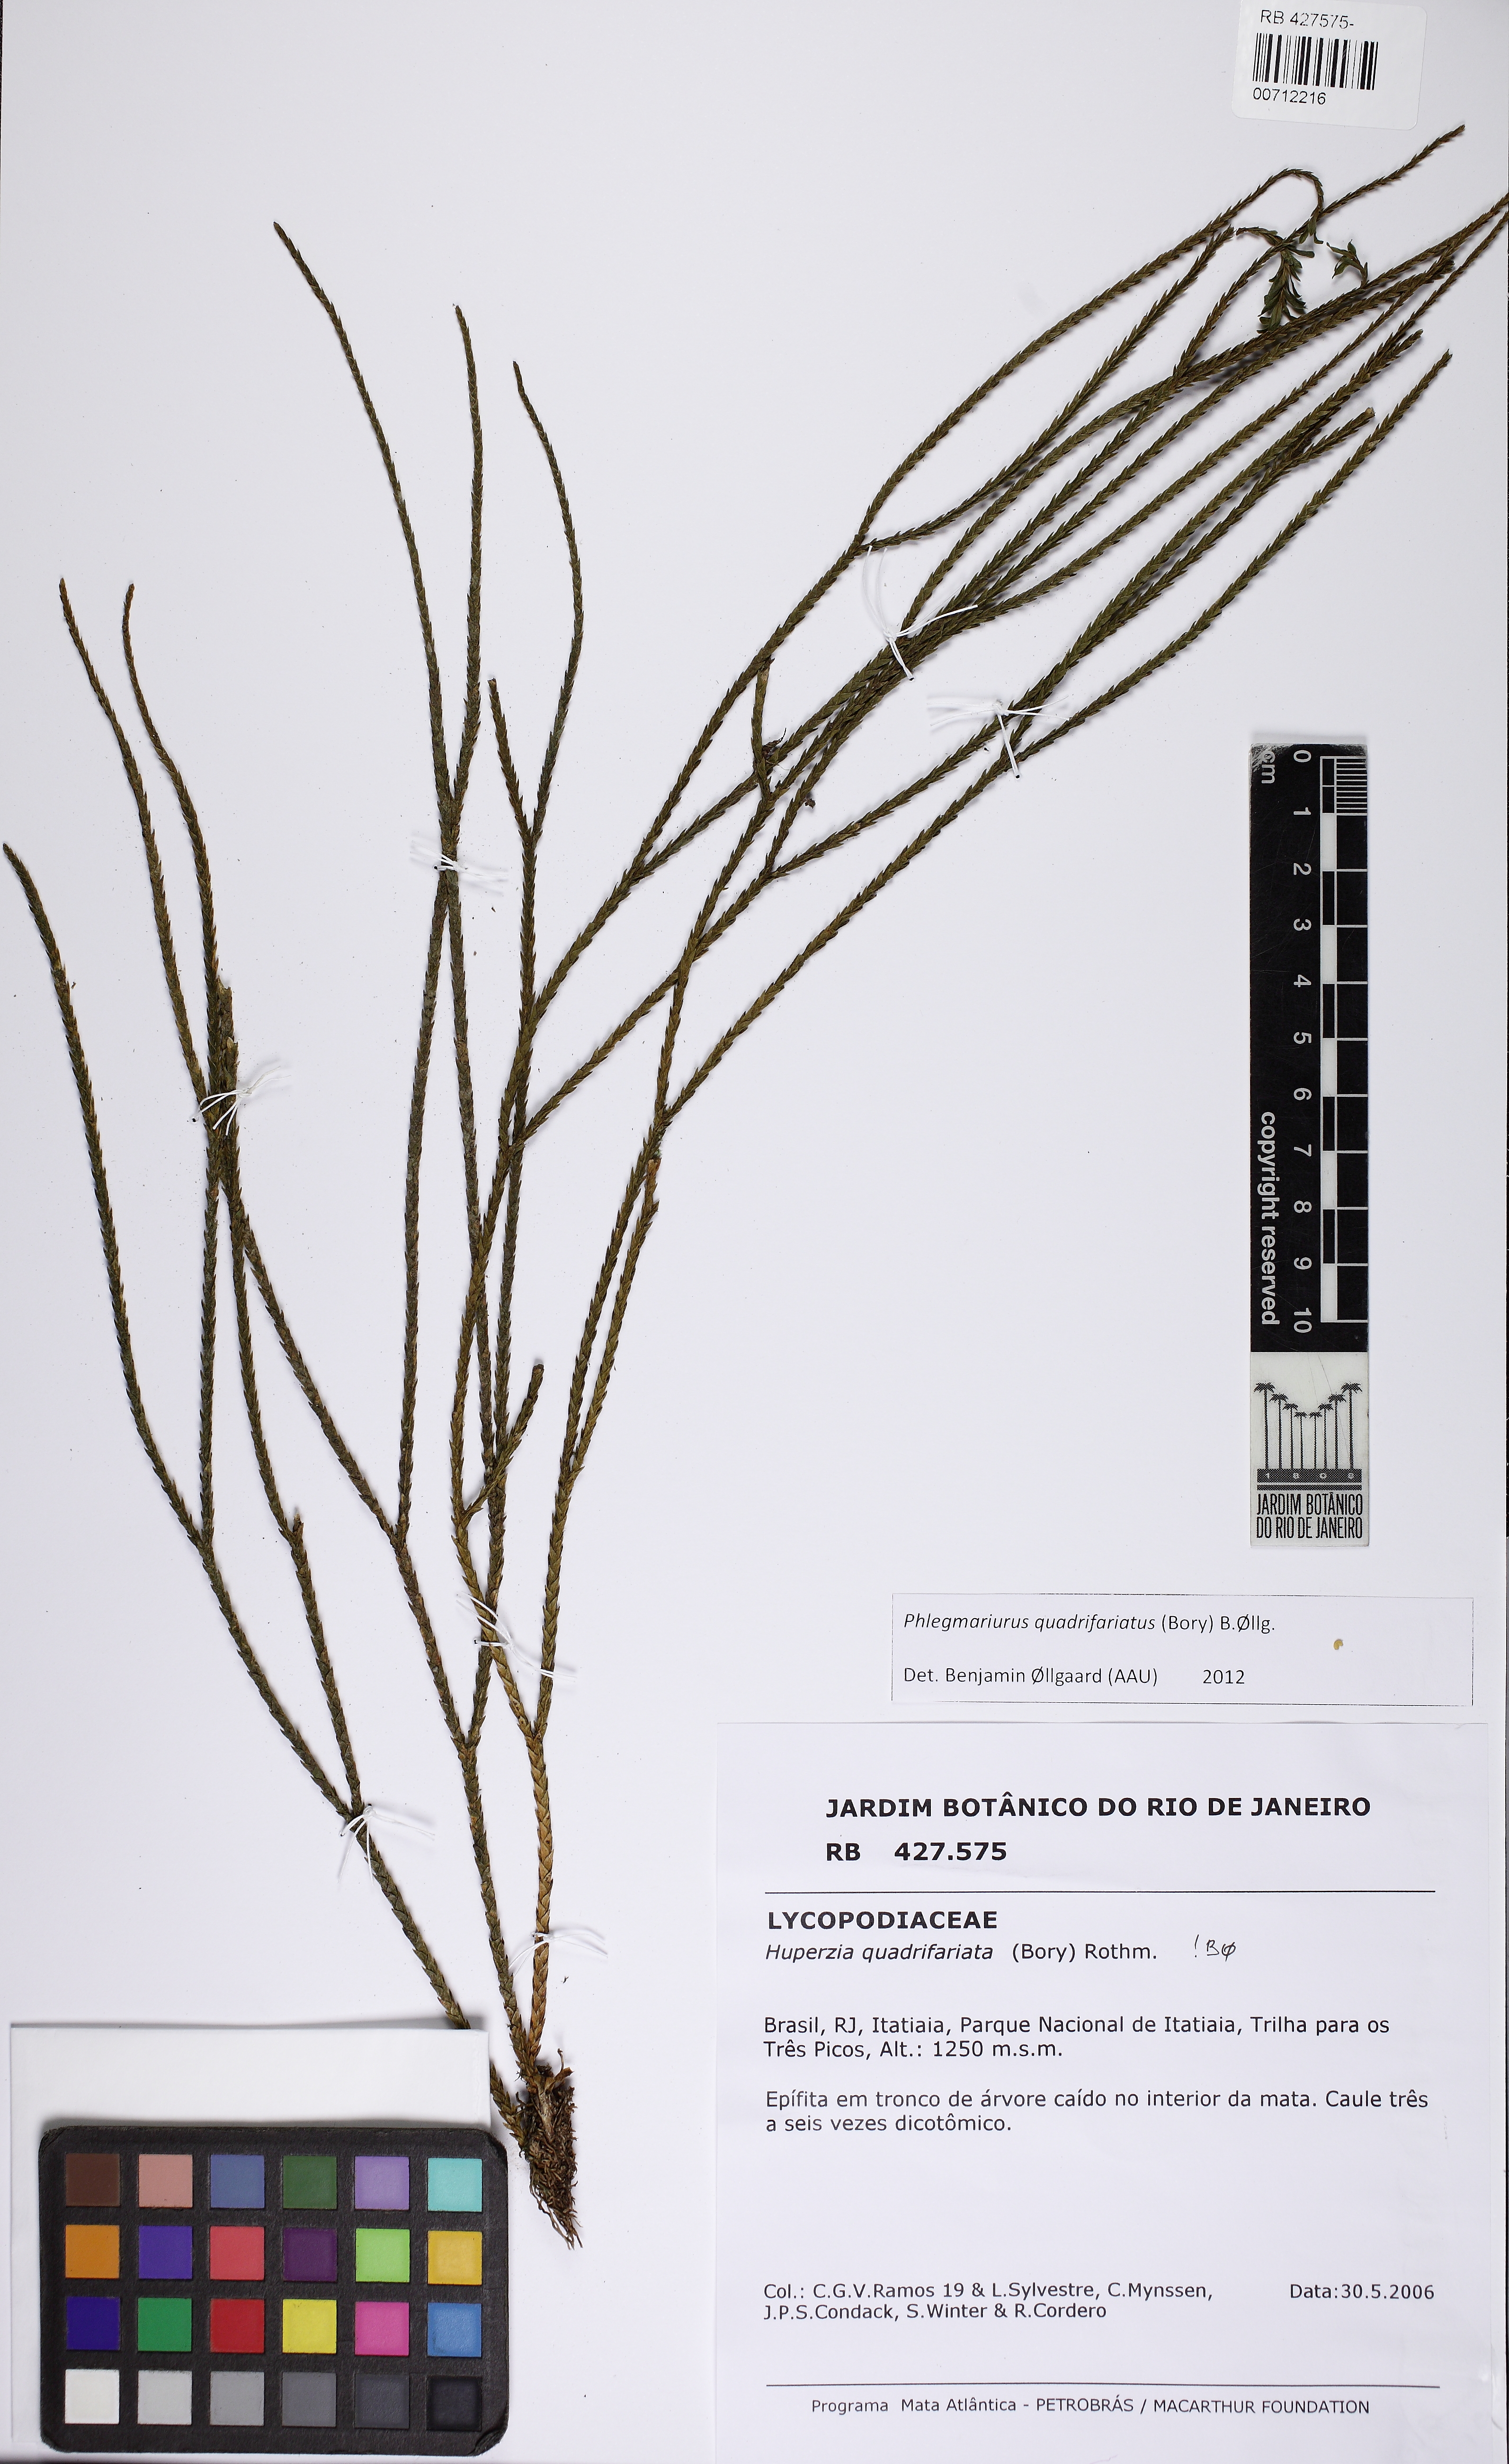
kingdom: Plantae
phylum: Tracheophyta
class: Lycopodiopsida
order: Lycopodiales
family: Lycopodiaceae
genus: Phlegmariurus
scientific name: Phlegmariurus quadrifariatus
